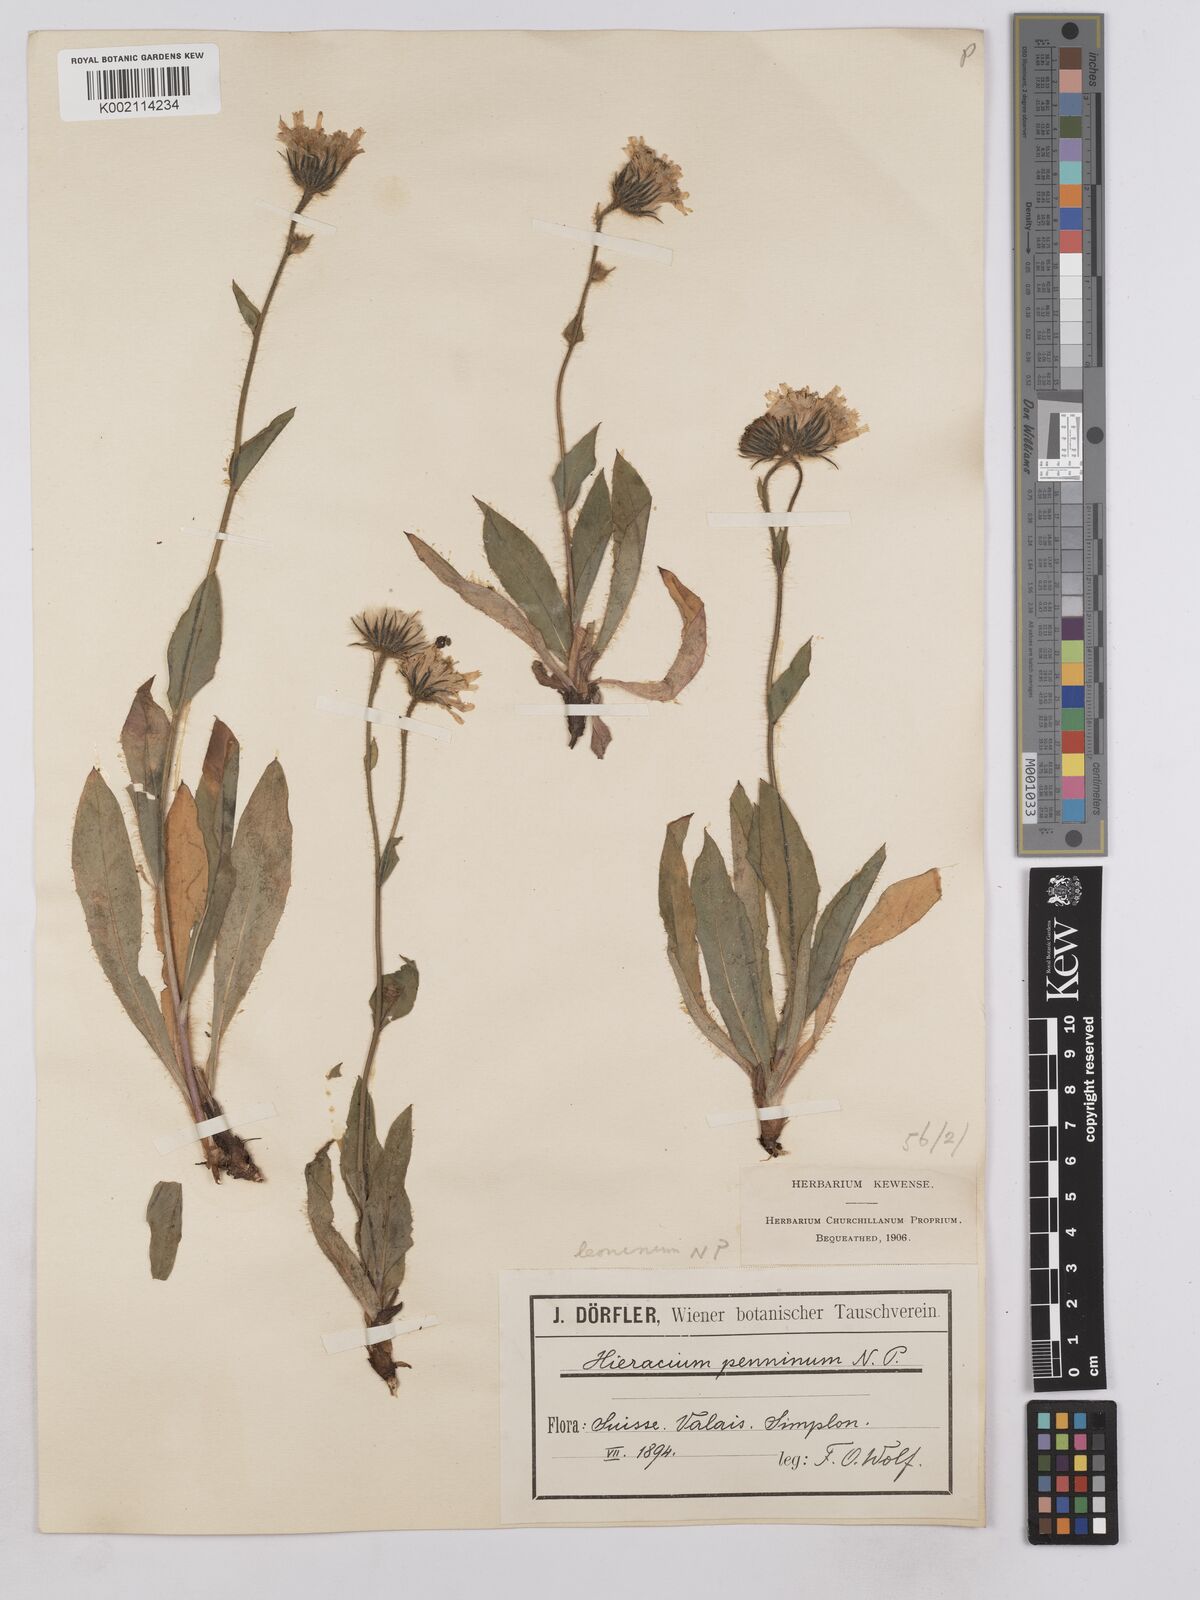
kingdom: Plantae
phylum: Tracheophyta
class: Magnoliopsida
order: Asterales
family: Asteraceae
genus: Hieracium
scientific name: Hieracium chlorifolium
